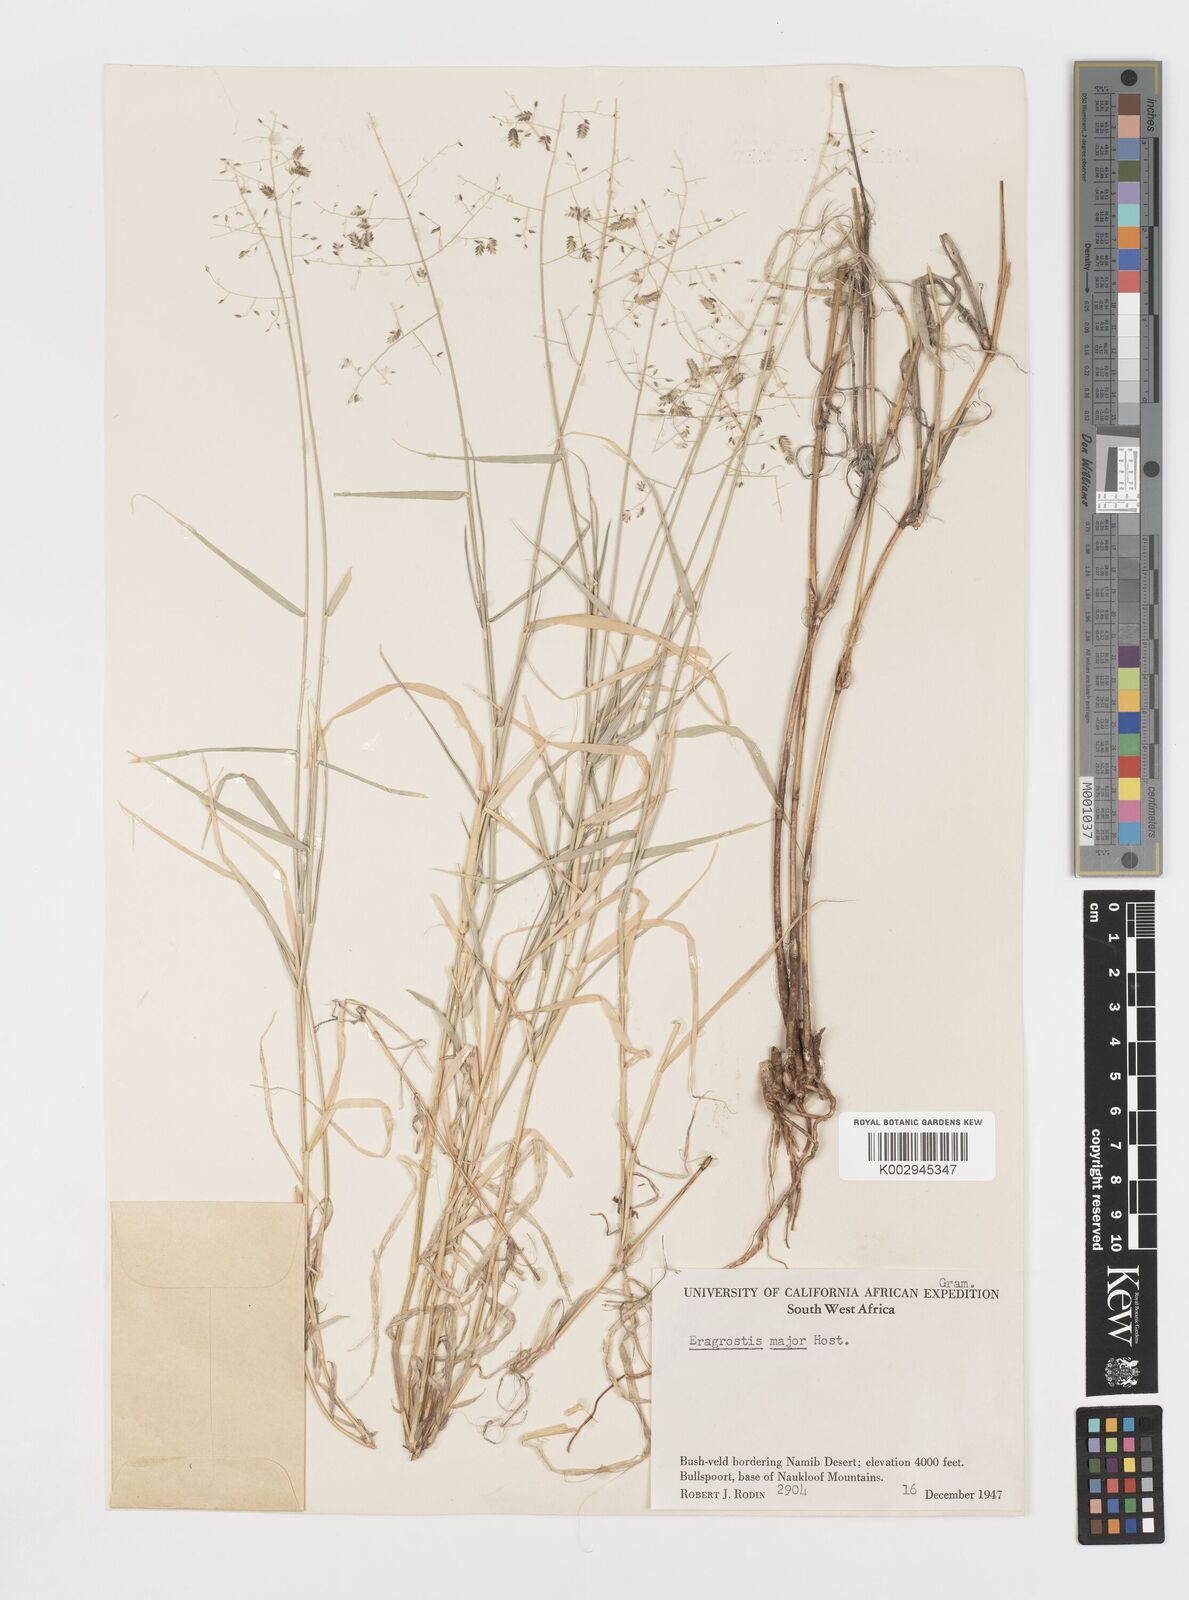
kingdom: Plantae
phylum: Tracheophyta
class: Liliopsida
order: Poales
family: Poaceae
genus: Eragrostis
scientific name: Eragrostis cilianensis
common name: Stinkgrass
